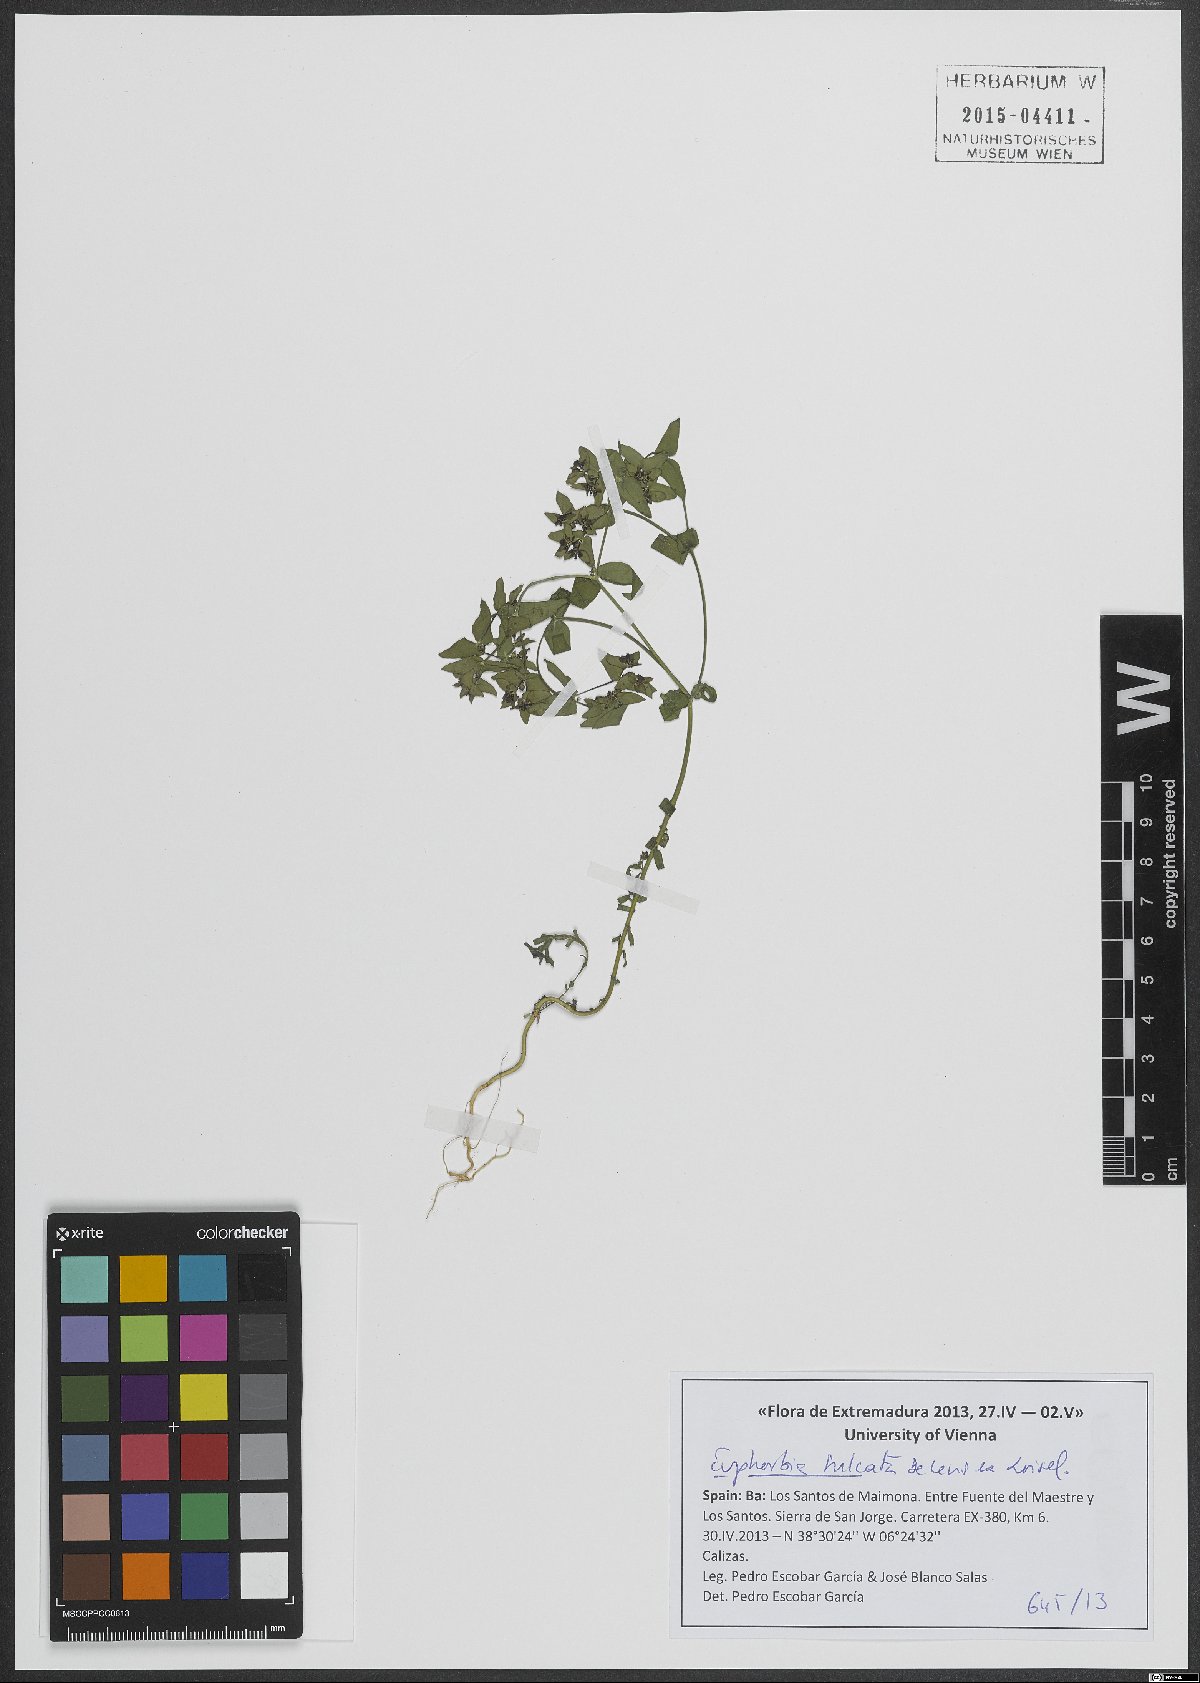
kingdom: Plantae
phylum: Tracheophyta
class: Magnoliopsida
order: Malpighiales
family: Euphorbiaceae
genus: Euphorbia
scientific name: Euphorbia sulcata
